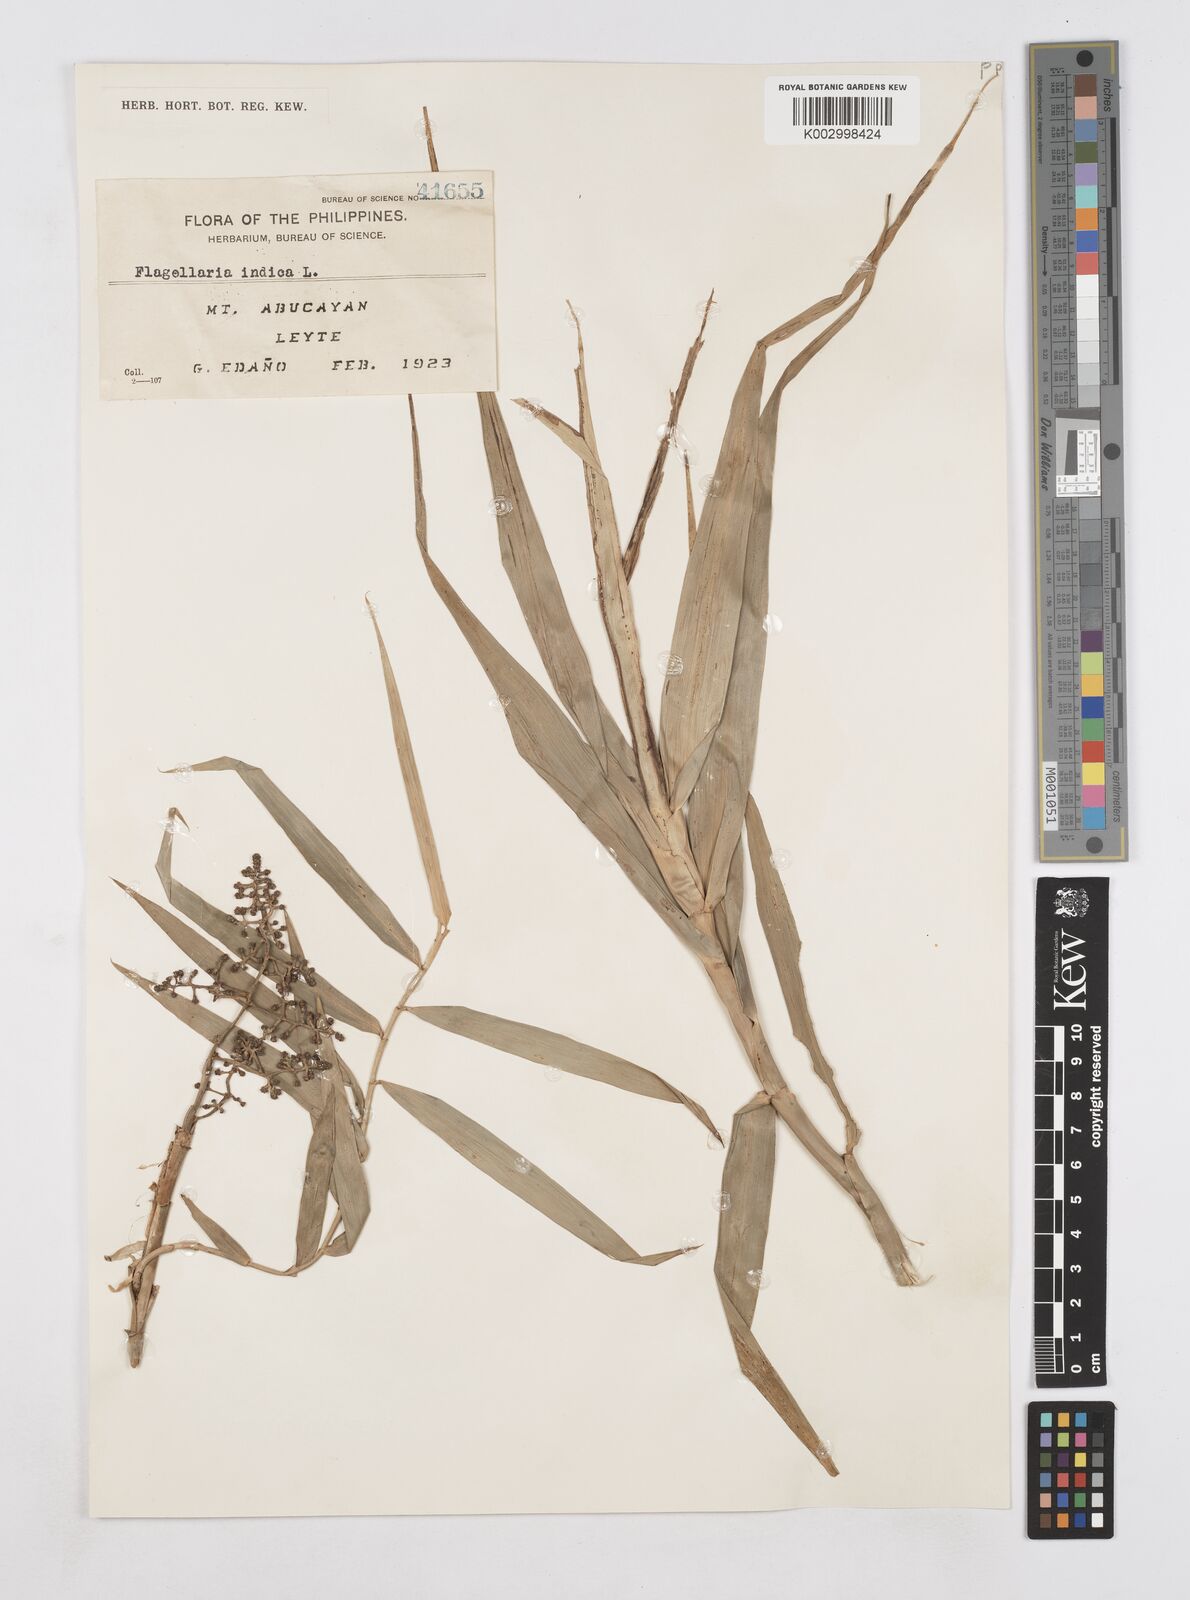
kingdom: Plantae
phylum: Tracheophyta
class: Liliopsida
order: Poales
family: Flagellariaceae
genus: Flagellaria
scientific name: Flagellaria indica
